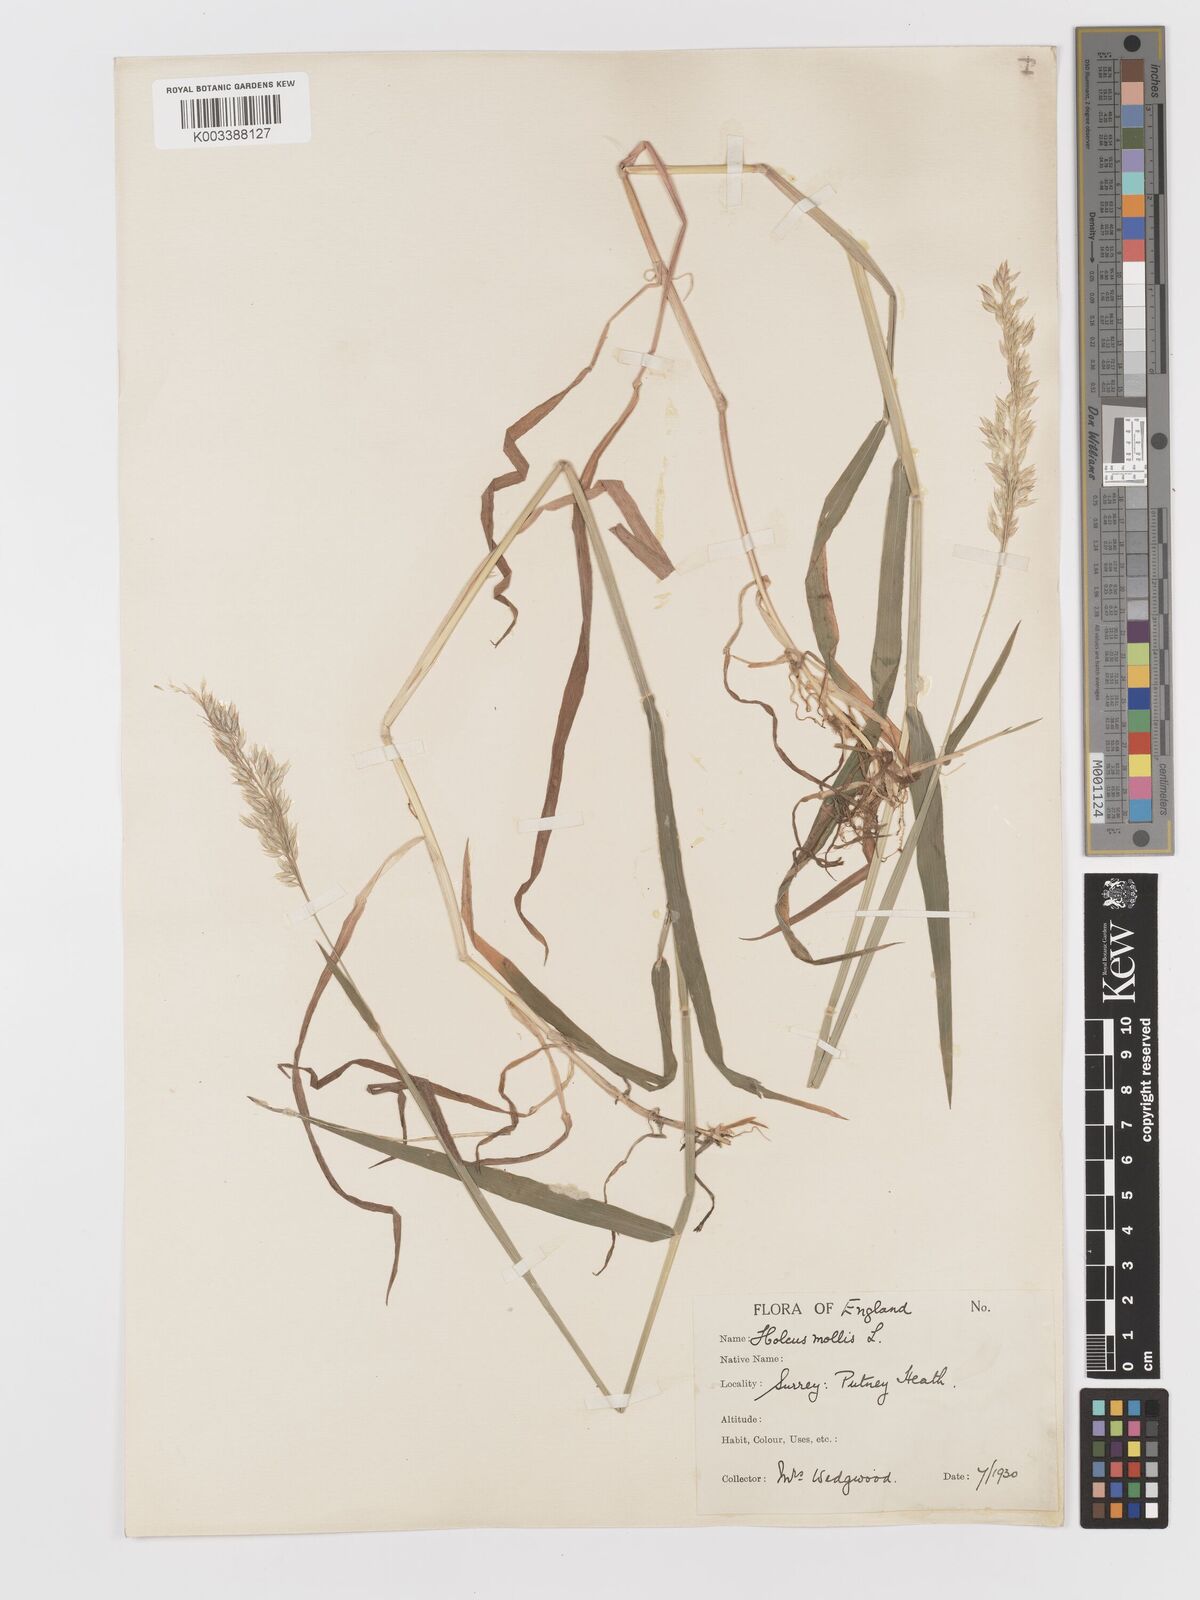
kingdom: Plantae
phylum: Tracheophyta
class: Liliopsida
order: Poales
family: Poaceae
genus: Holcus
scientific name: Holcus mollis
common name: Creeping velvetgrass
